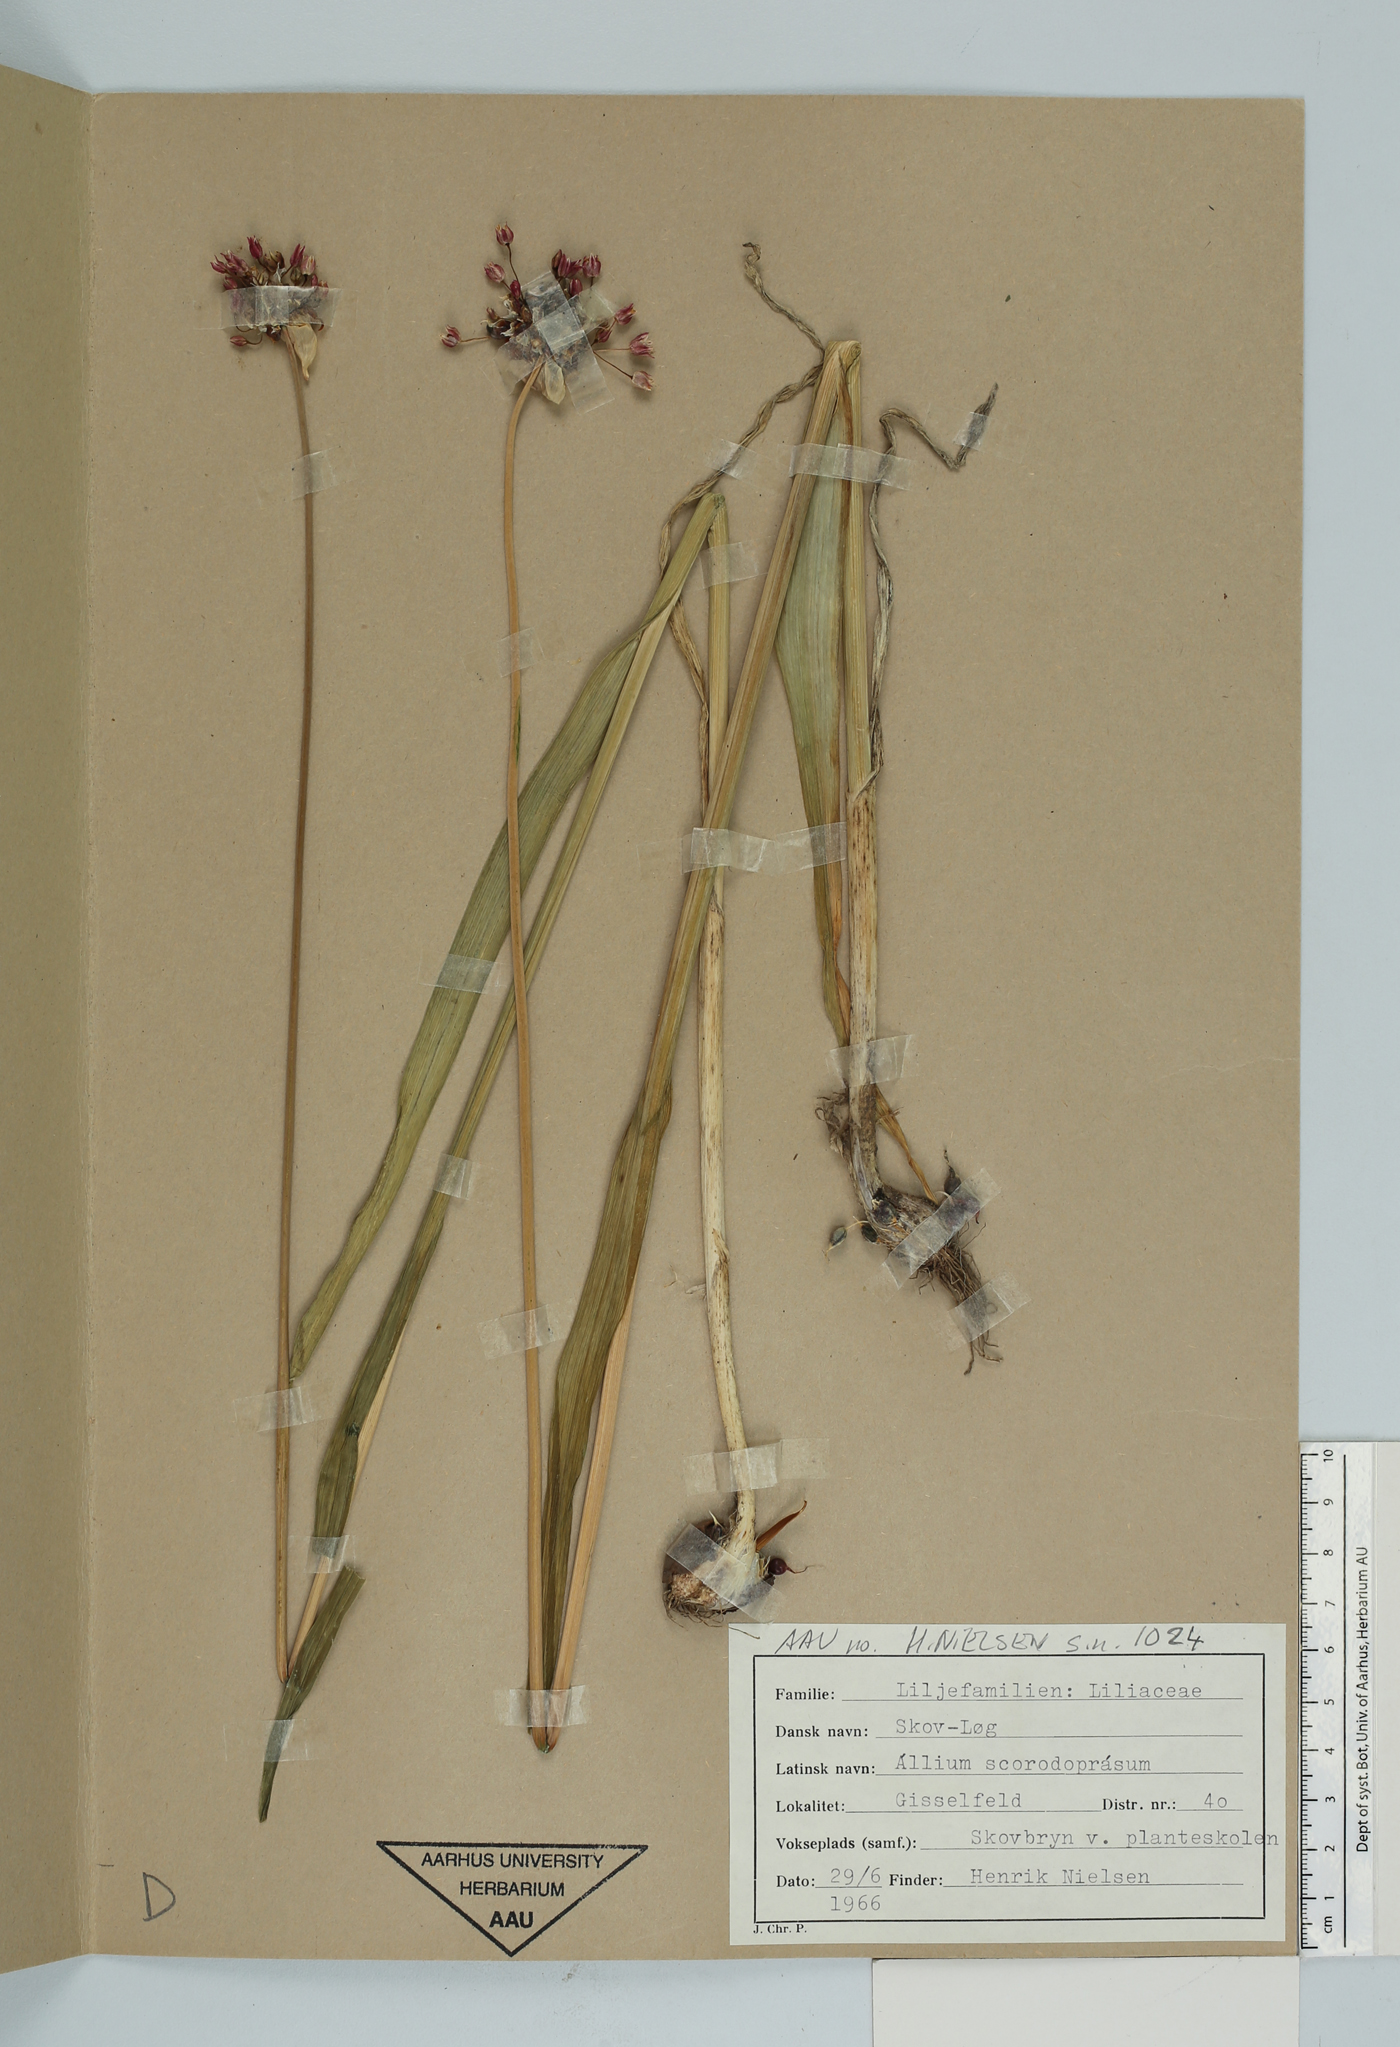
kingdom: Plantae
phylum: Tracheophyta
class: Liliopsida
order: Asparagales
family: Amaryllidaceae
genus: Allium
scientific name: Allium schoenoprasum
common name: Chives
